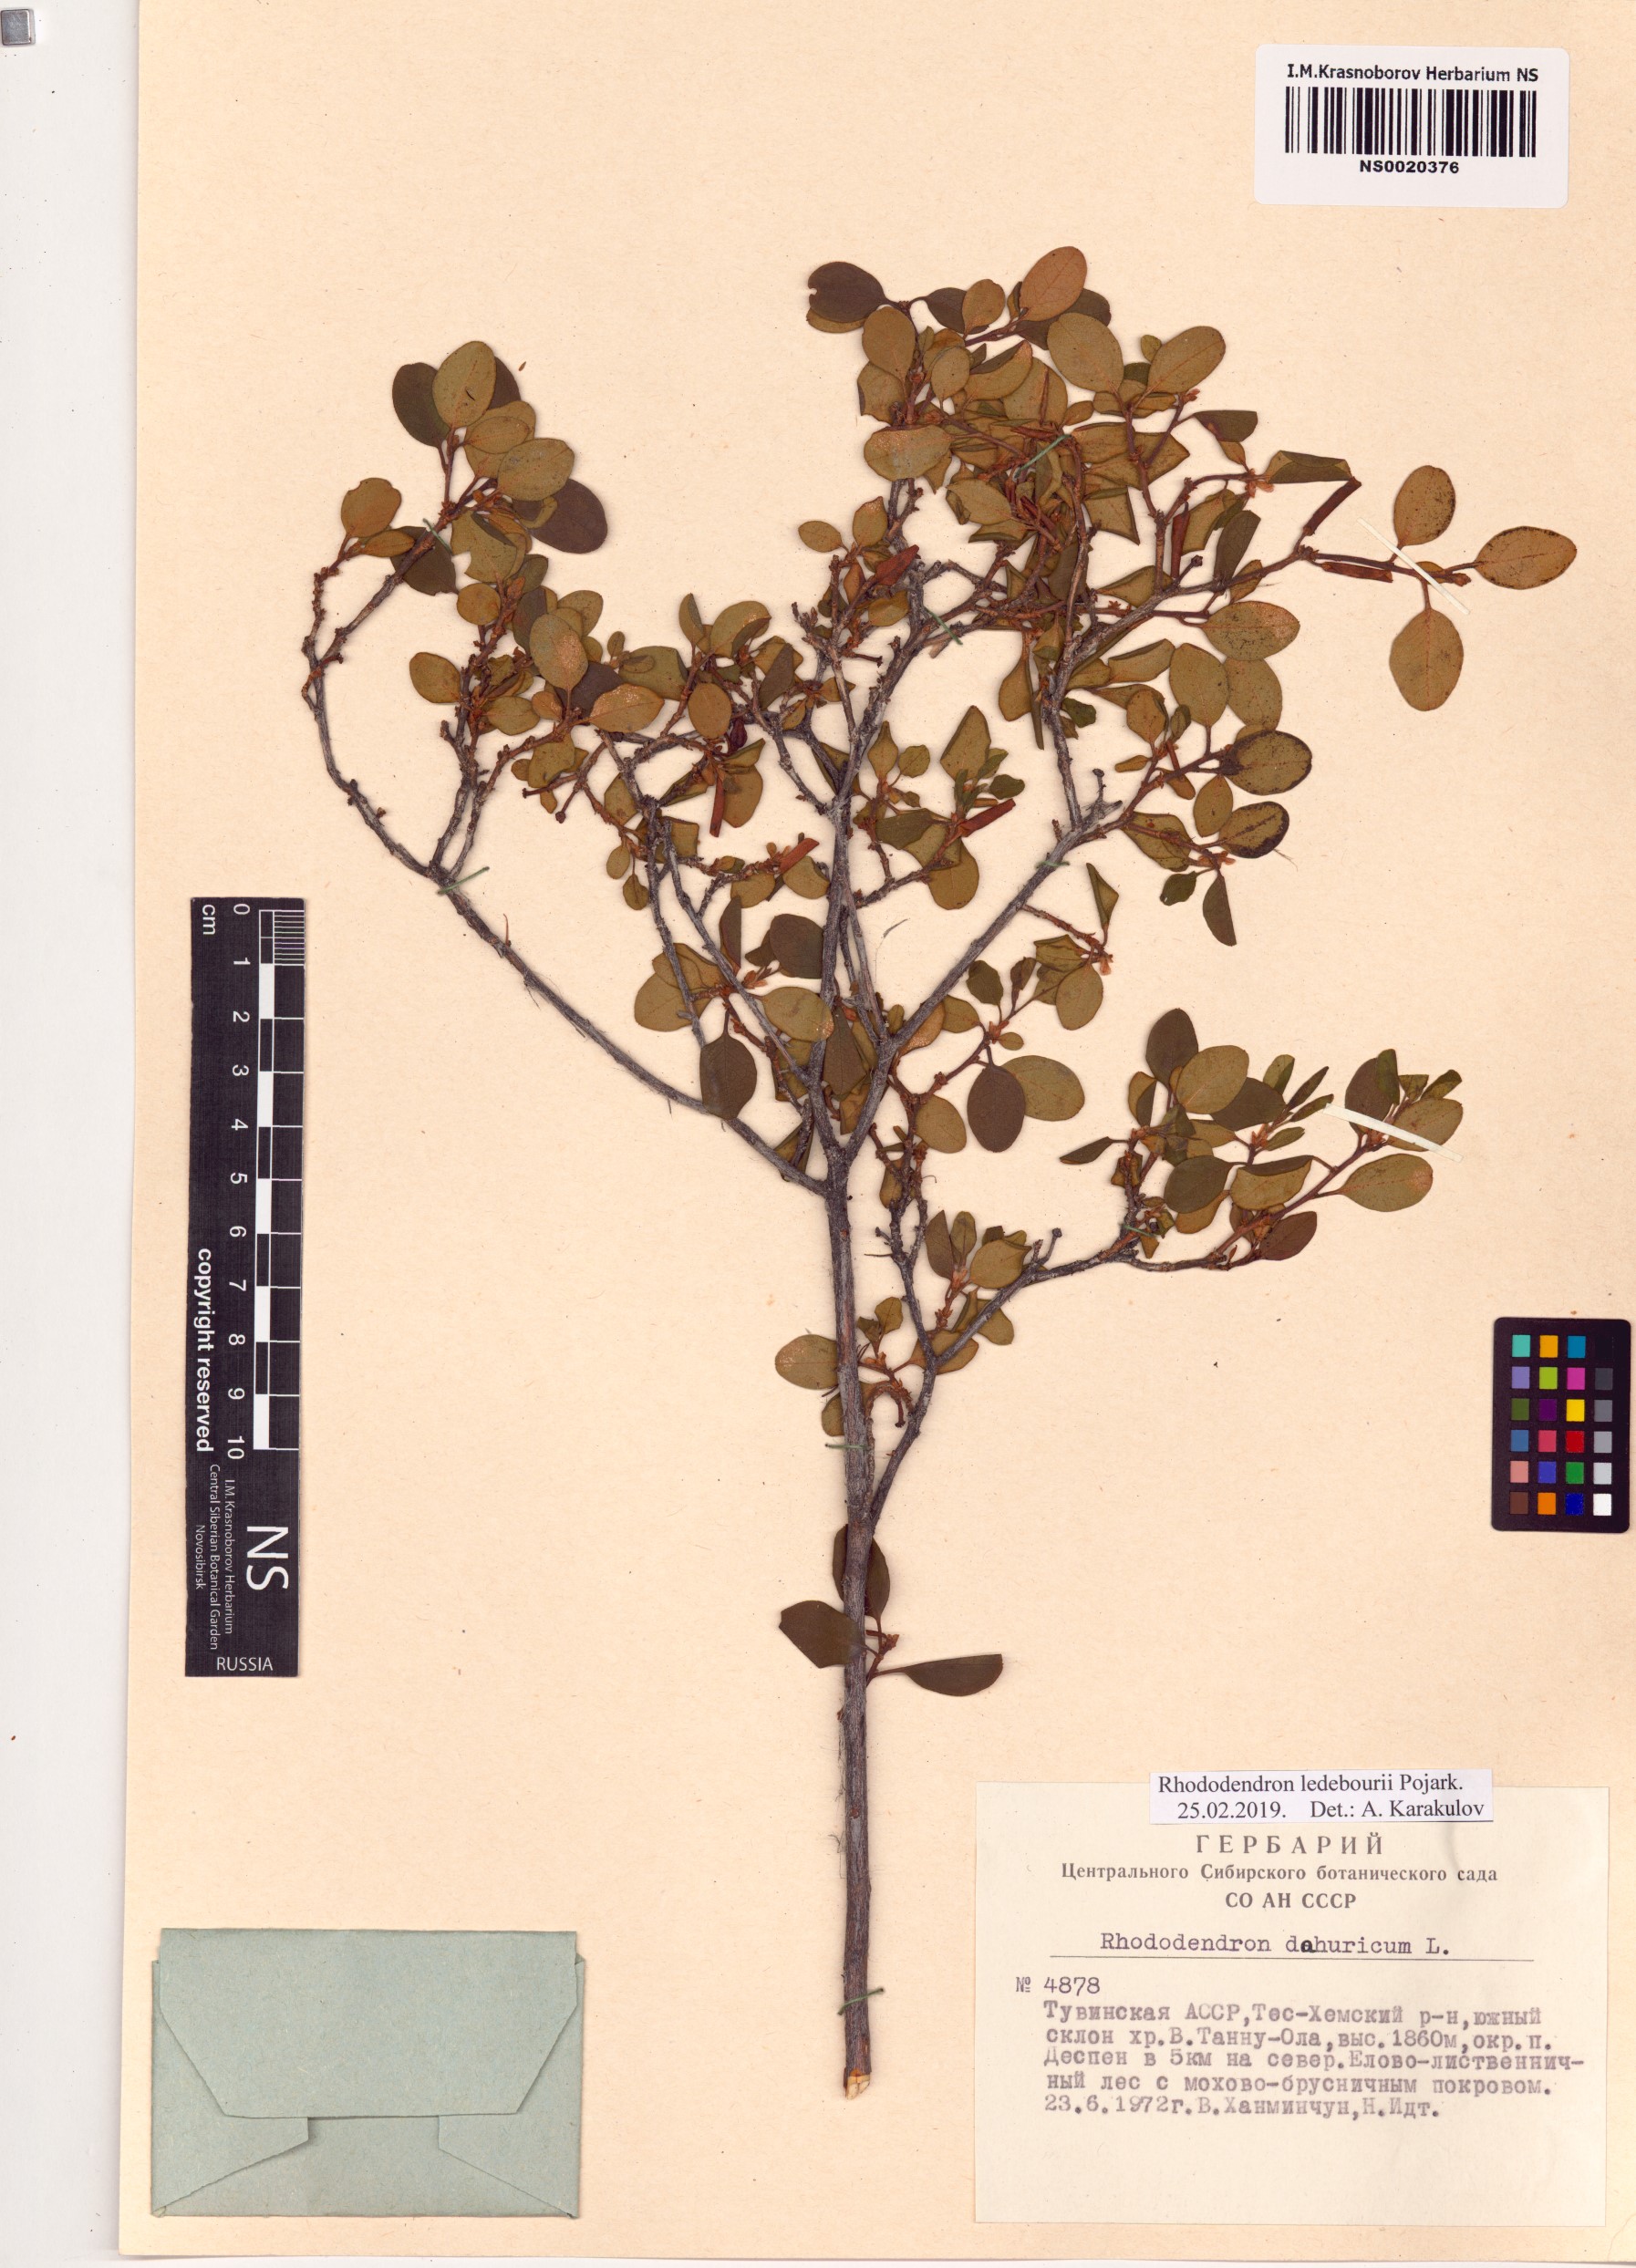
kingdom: Plantae
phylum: Tracheophyta
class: Magnoliopsida
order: Ericales
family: Ericaceae
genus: Rhododendron
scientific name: Rhododendron dauricum
